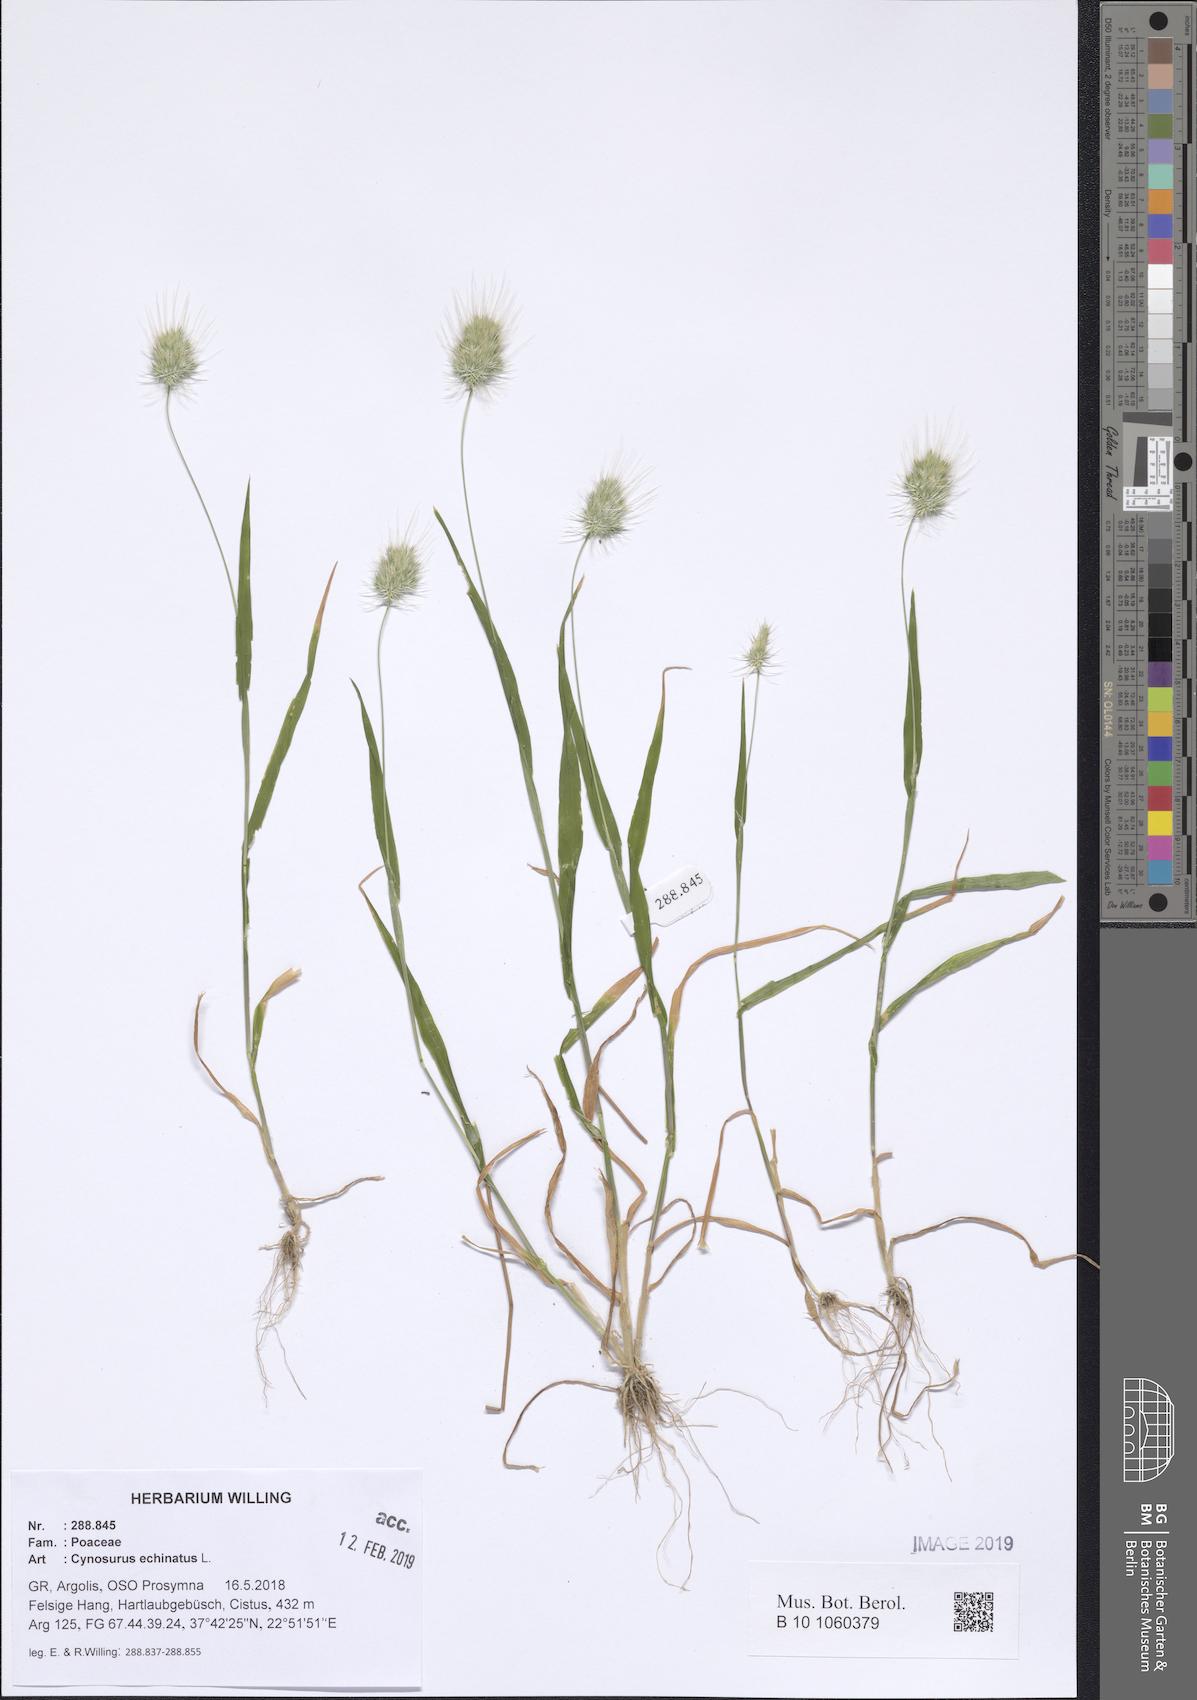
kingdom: Plantae
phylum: Tracheophyta
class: Liliopsida
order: Poales
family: Poaceae
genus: Cynosurus
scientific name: Cynosurus echinatus
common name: Rough dog's-tail
